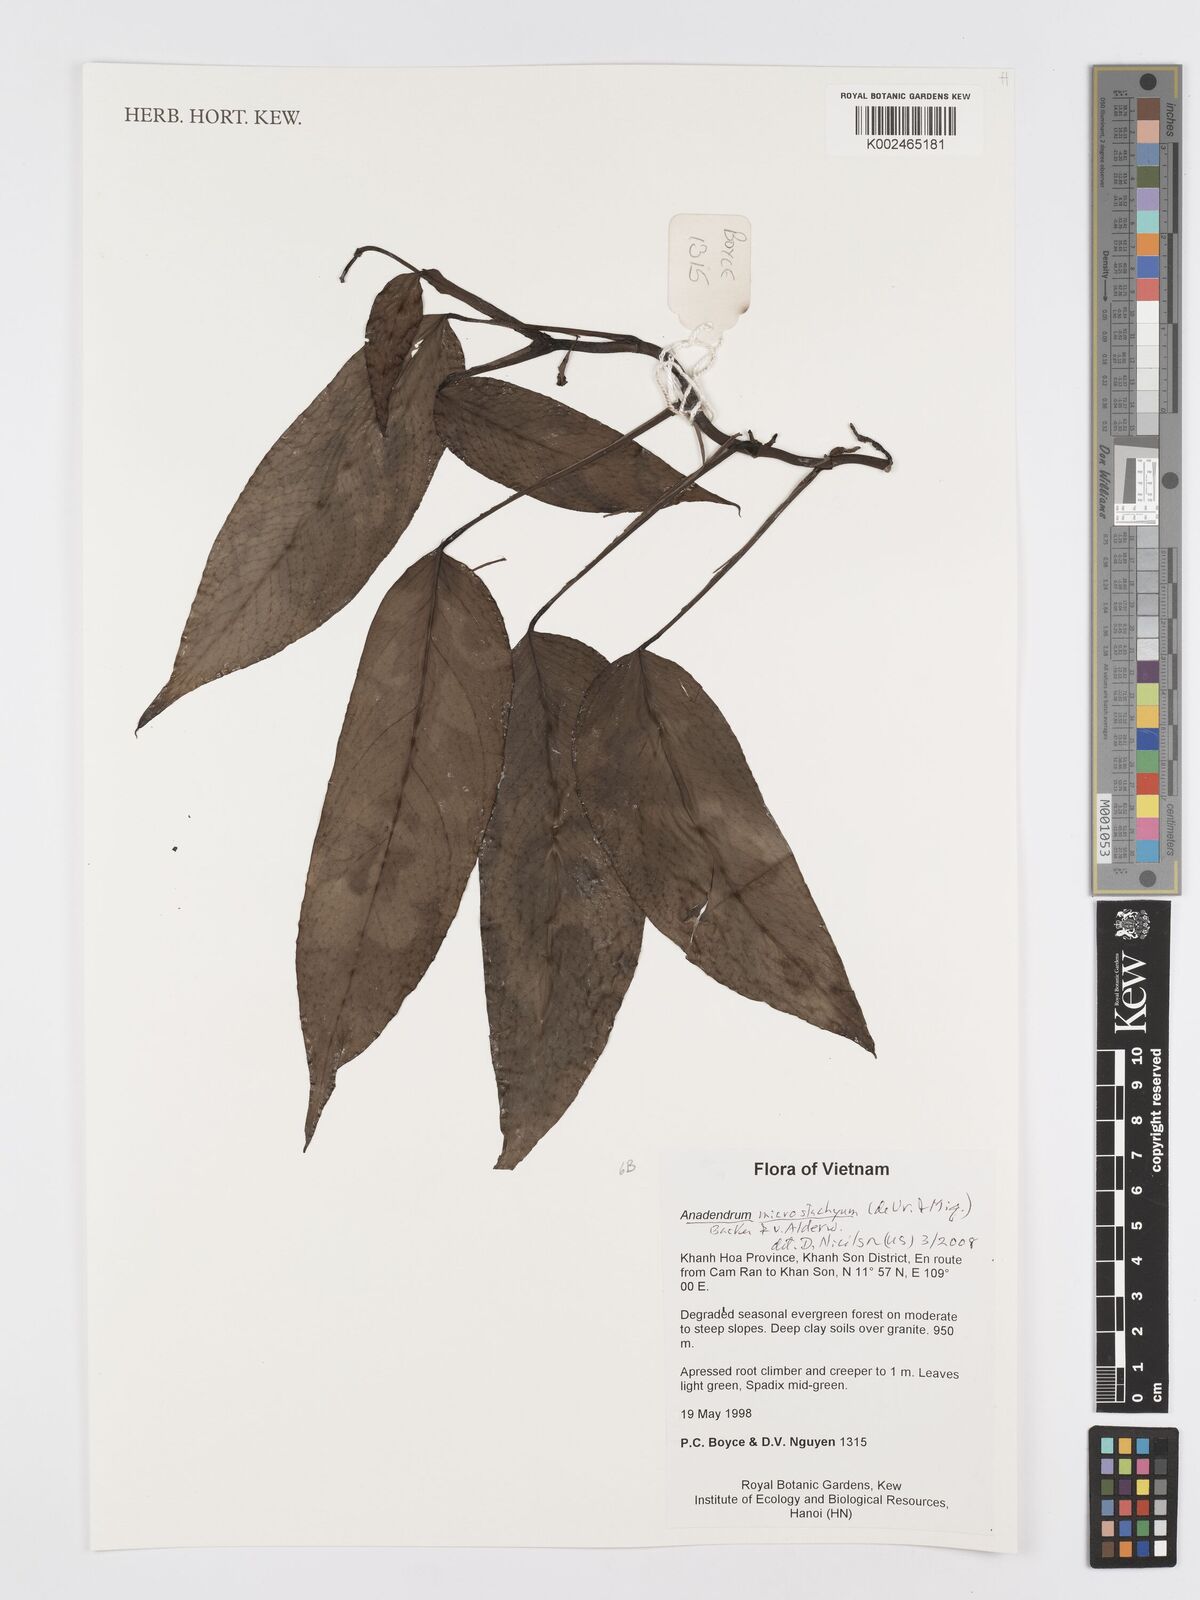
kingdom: Plantae
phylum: Tracheophyta
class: Liliopsida
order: Alismatales
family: Araceae
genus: Anadendrum
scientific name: Anadendrum microstachyum
